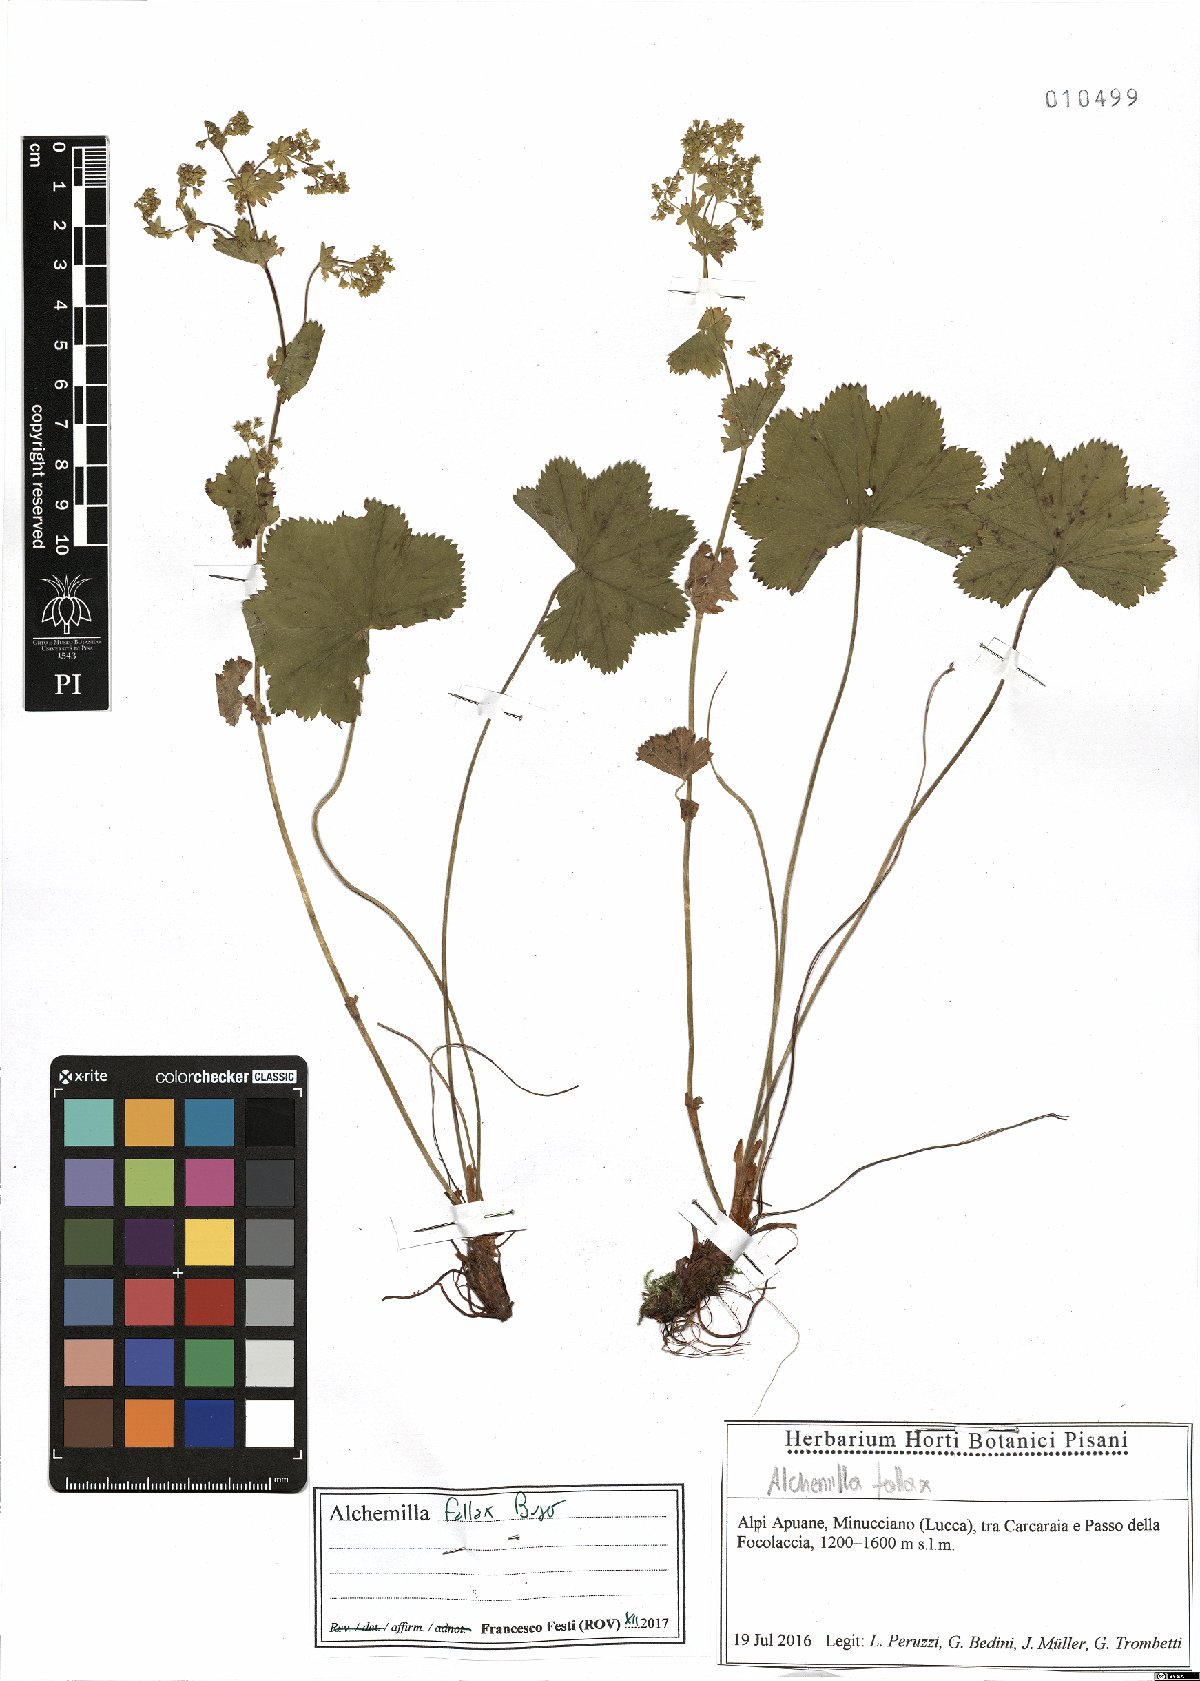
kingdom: Plantae
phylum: Tracheophyta
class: Magnoliopsida
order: Rosales
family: Rosaceae
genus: Alchemilla
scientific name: Alchemilla fallax
